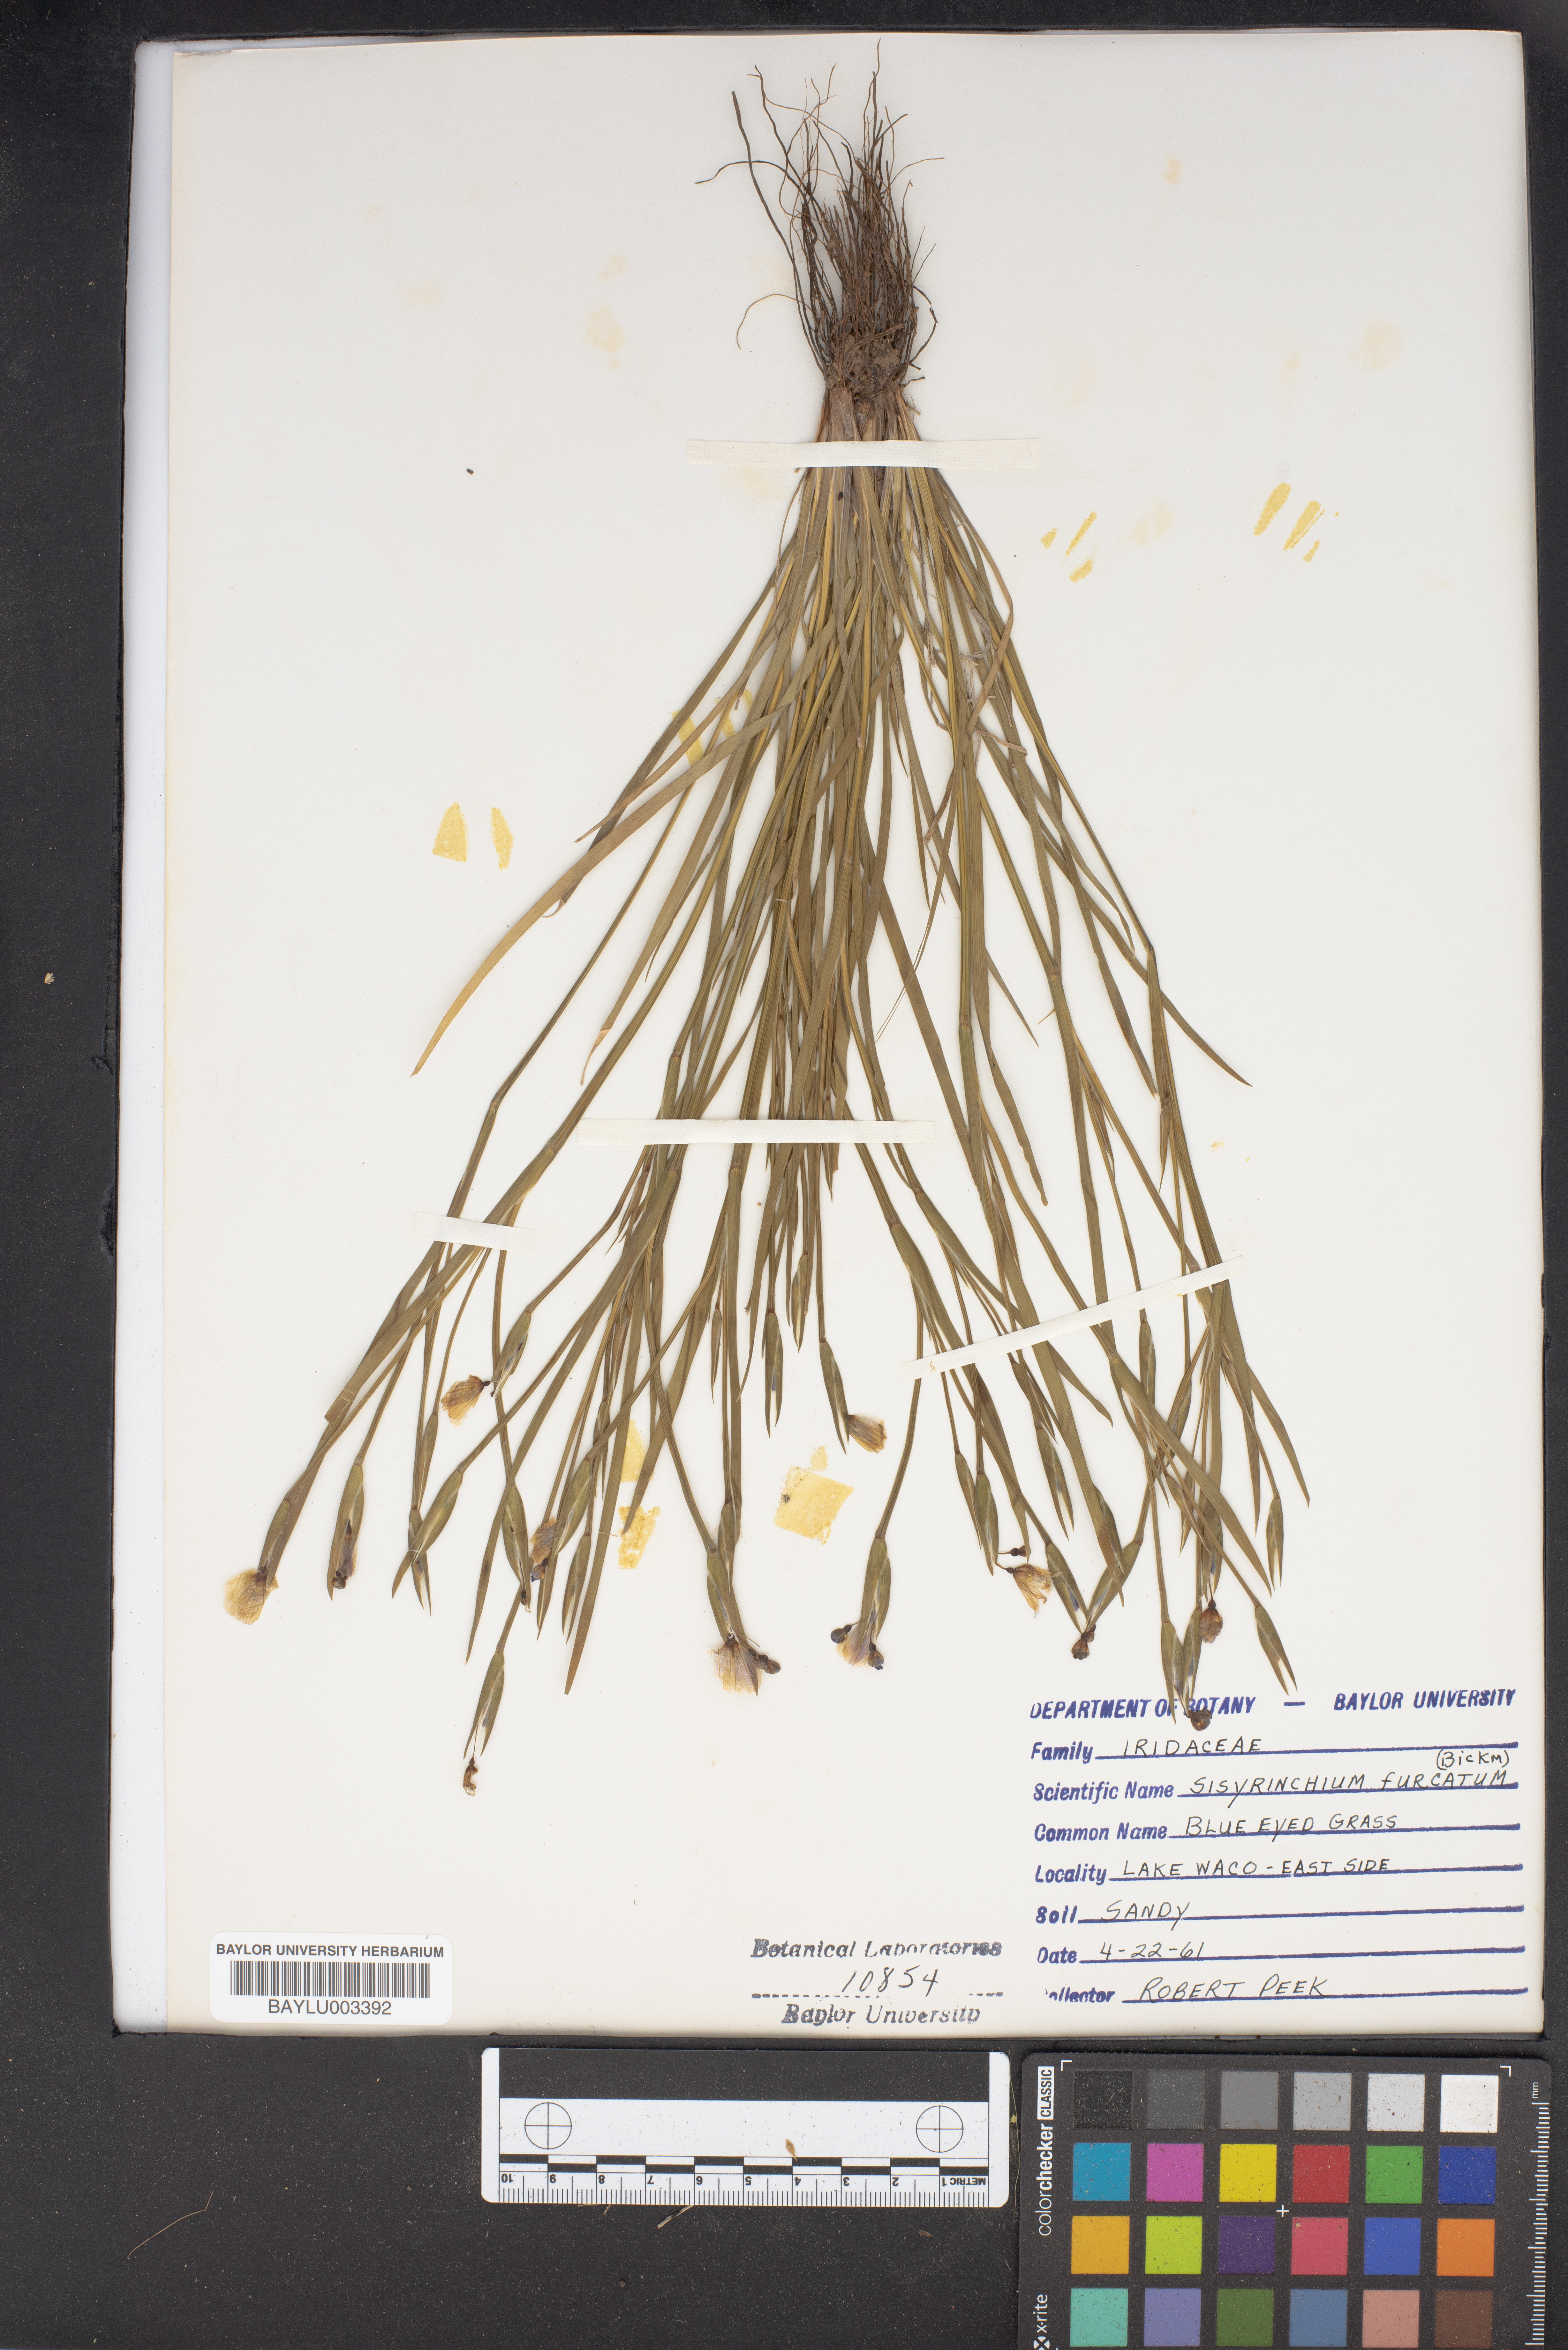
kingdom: Plantae
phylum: Tracheophyta
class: Liliopsida
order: Asparagales
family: Iridaceae
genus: Sisyrinchium
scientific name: Sisyrinchium fuscatum
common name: Coastal plain blue-eyed-grass
